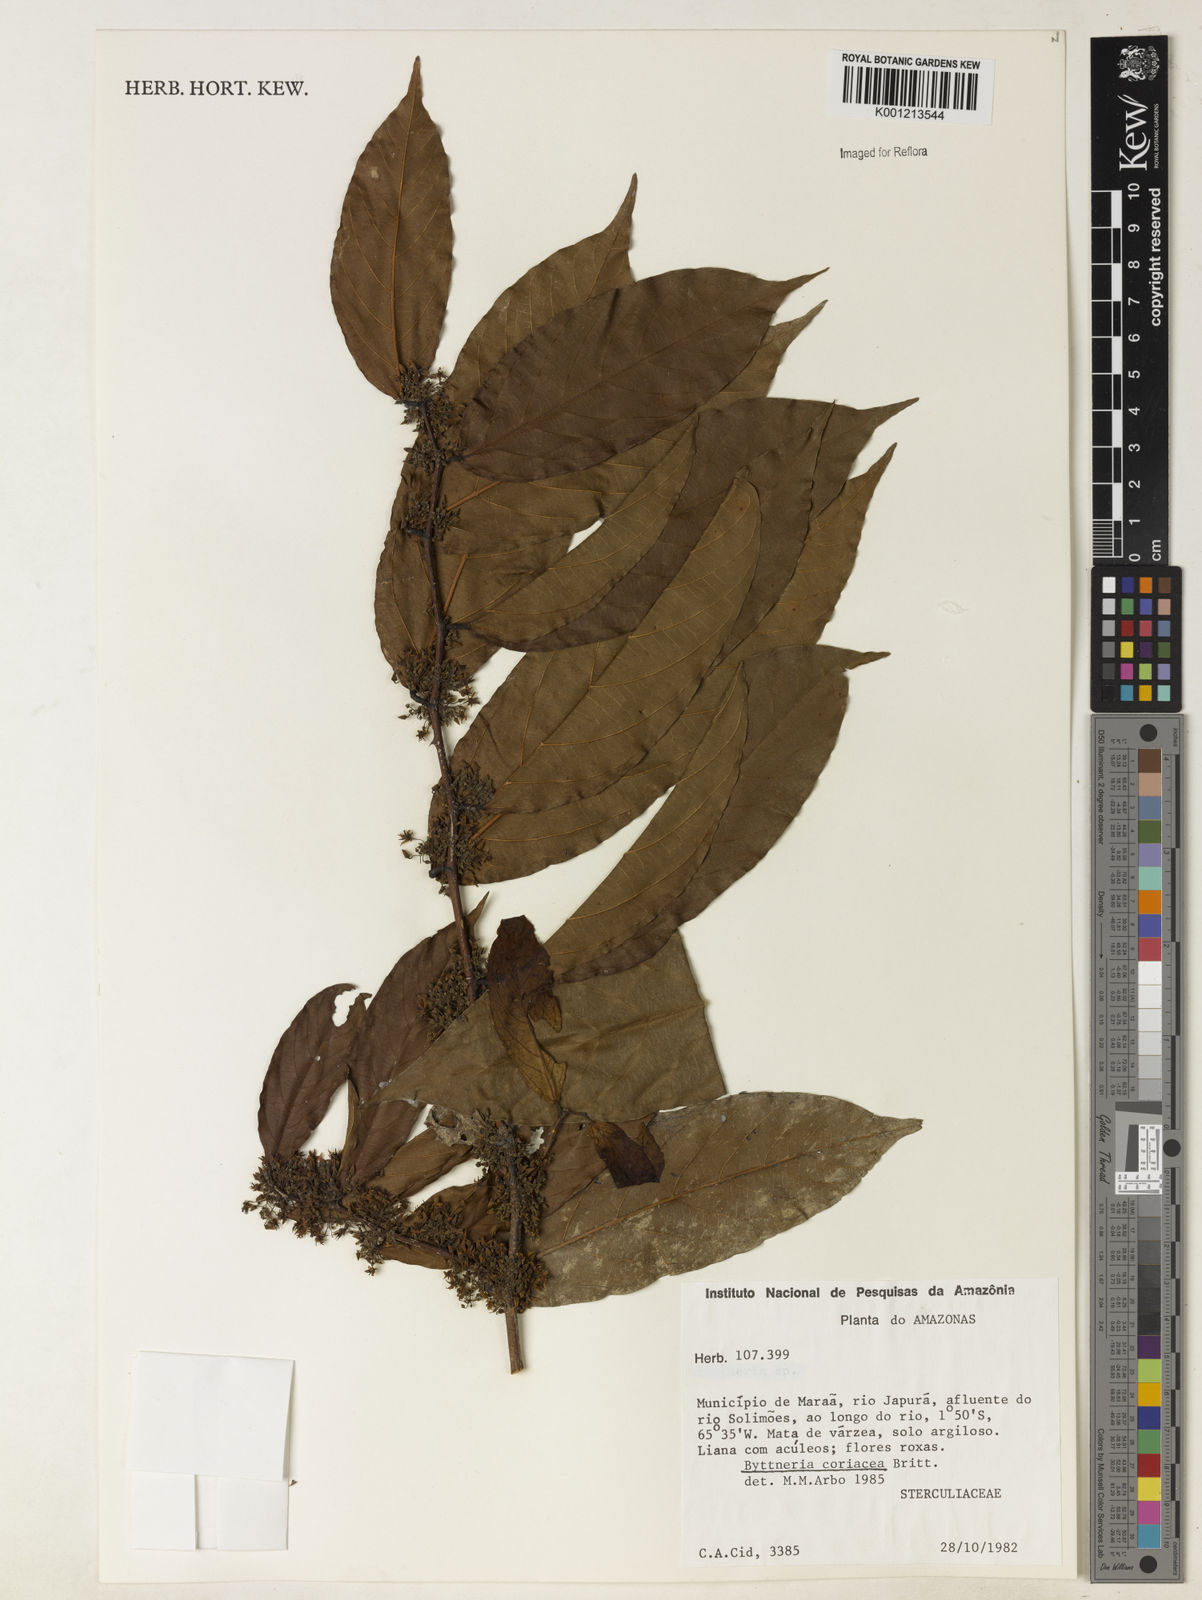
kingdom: Plantae
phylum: Tracheophyta
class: Magnoliopsida
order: Malvales
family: Malvaceae
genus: Byttneria
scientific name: Byttneria coriacea
